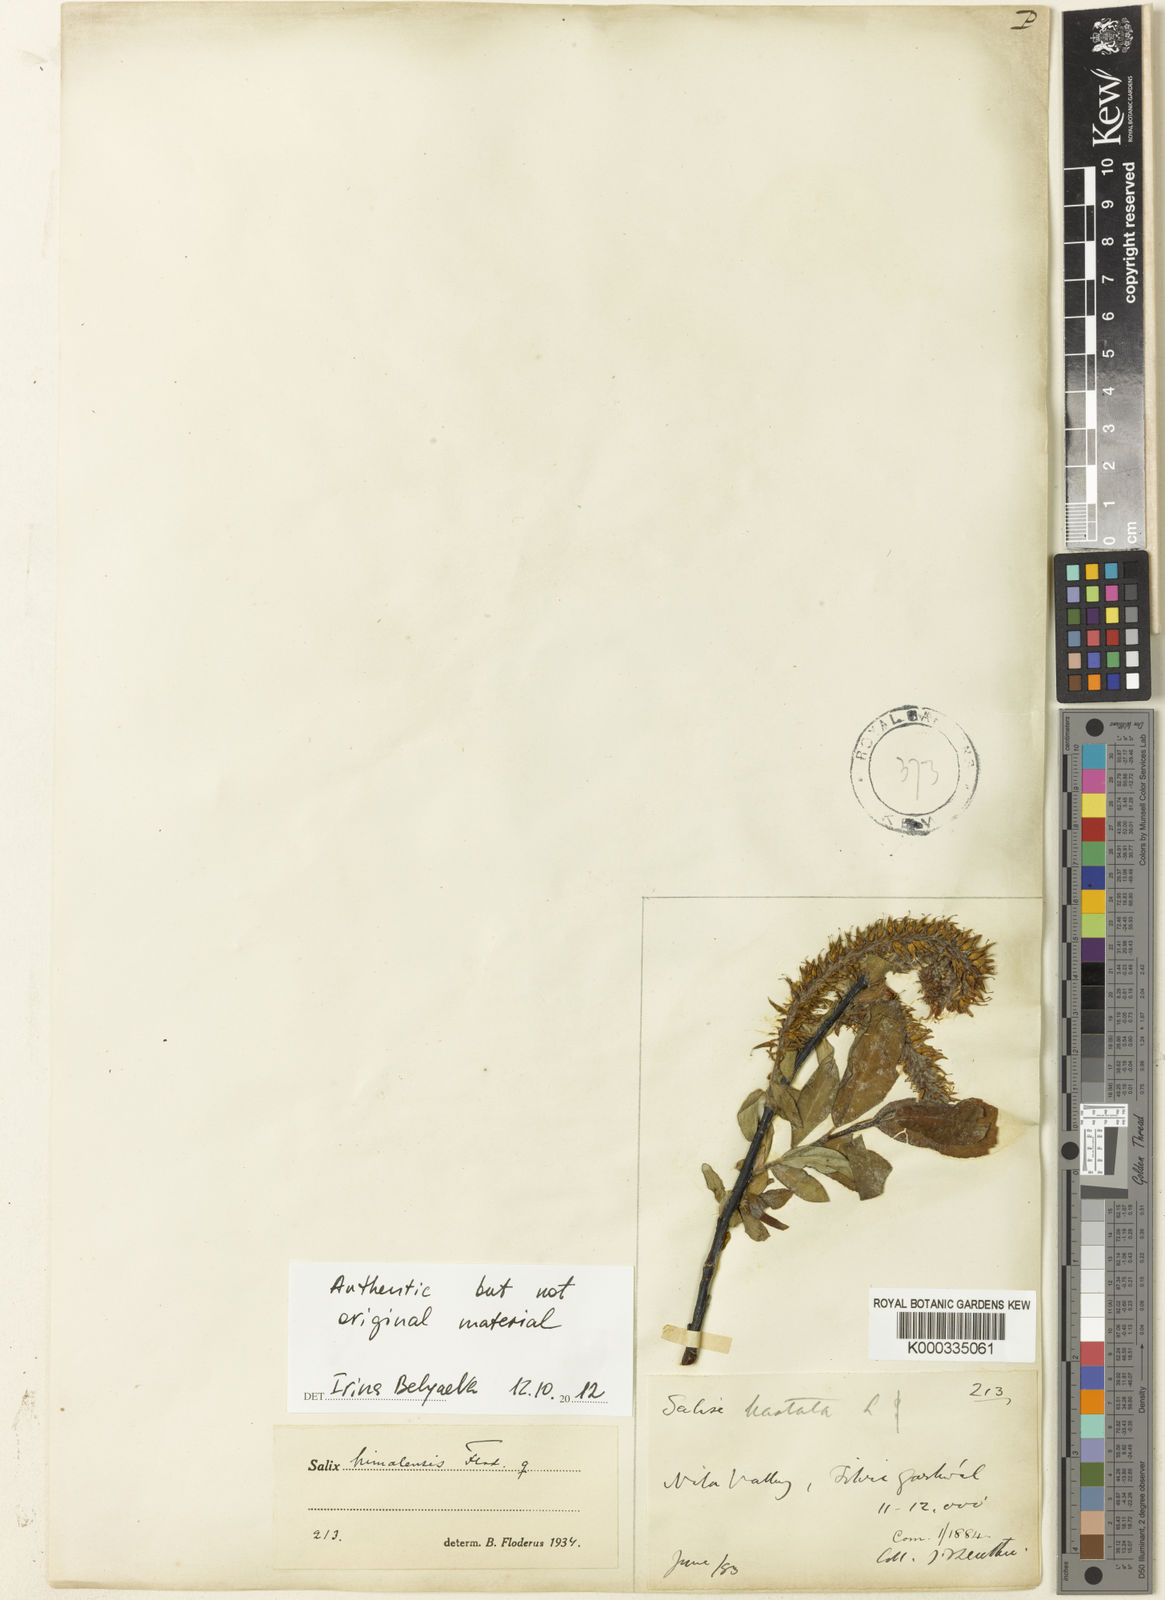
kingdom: Plantae
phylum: Tracheophyta
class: Magnoliopsida
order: Malpighiales
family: Salicaceae
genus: Salix
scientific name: Salix karelinii
